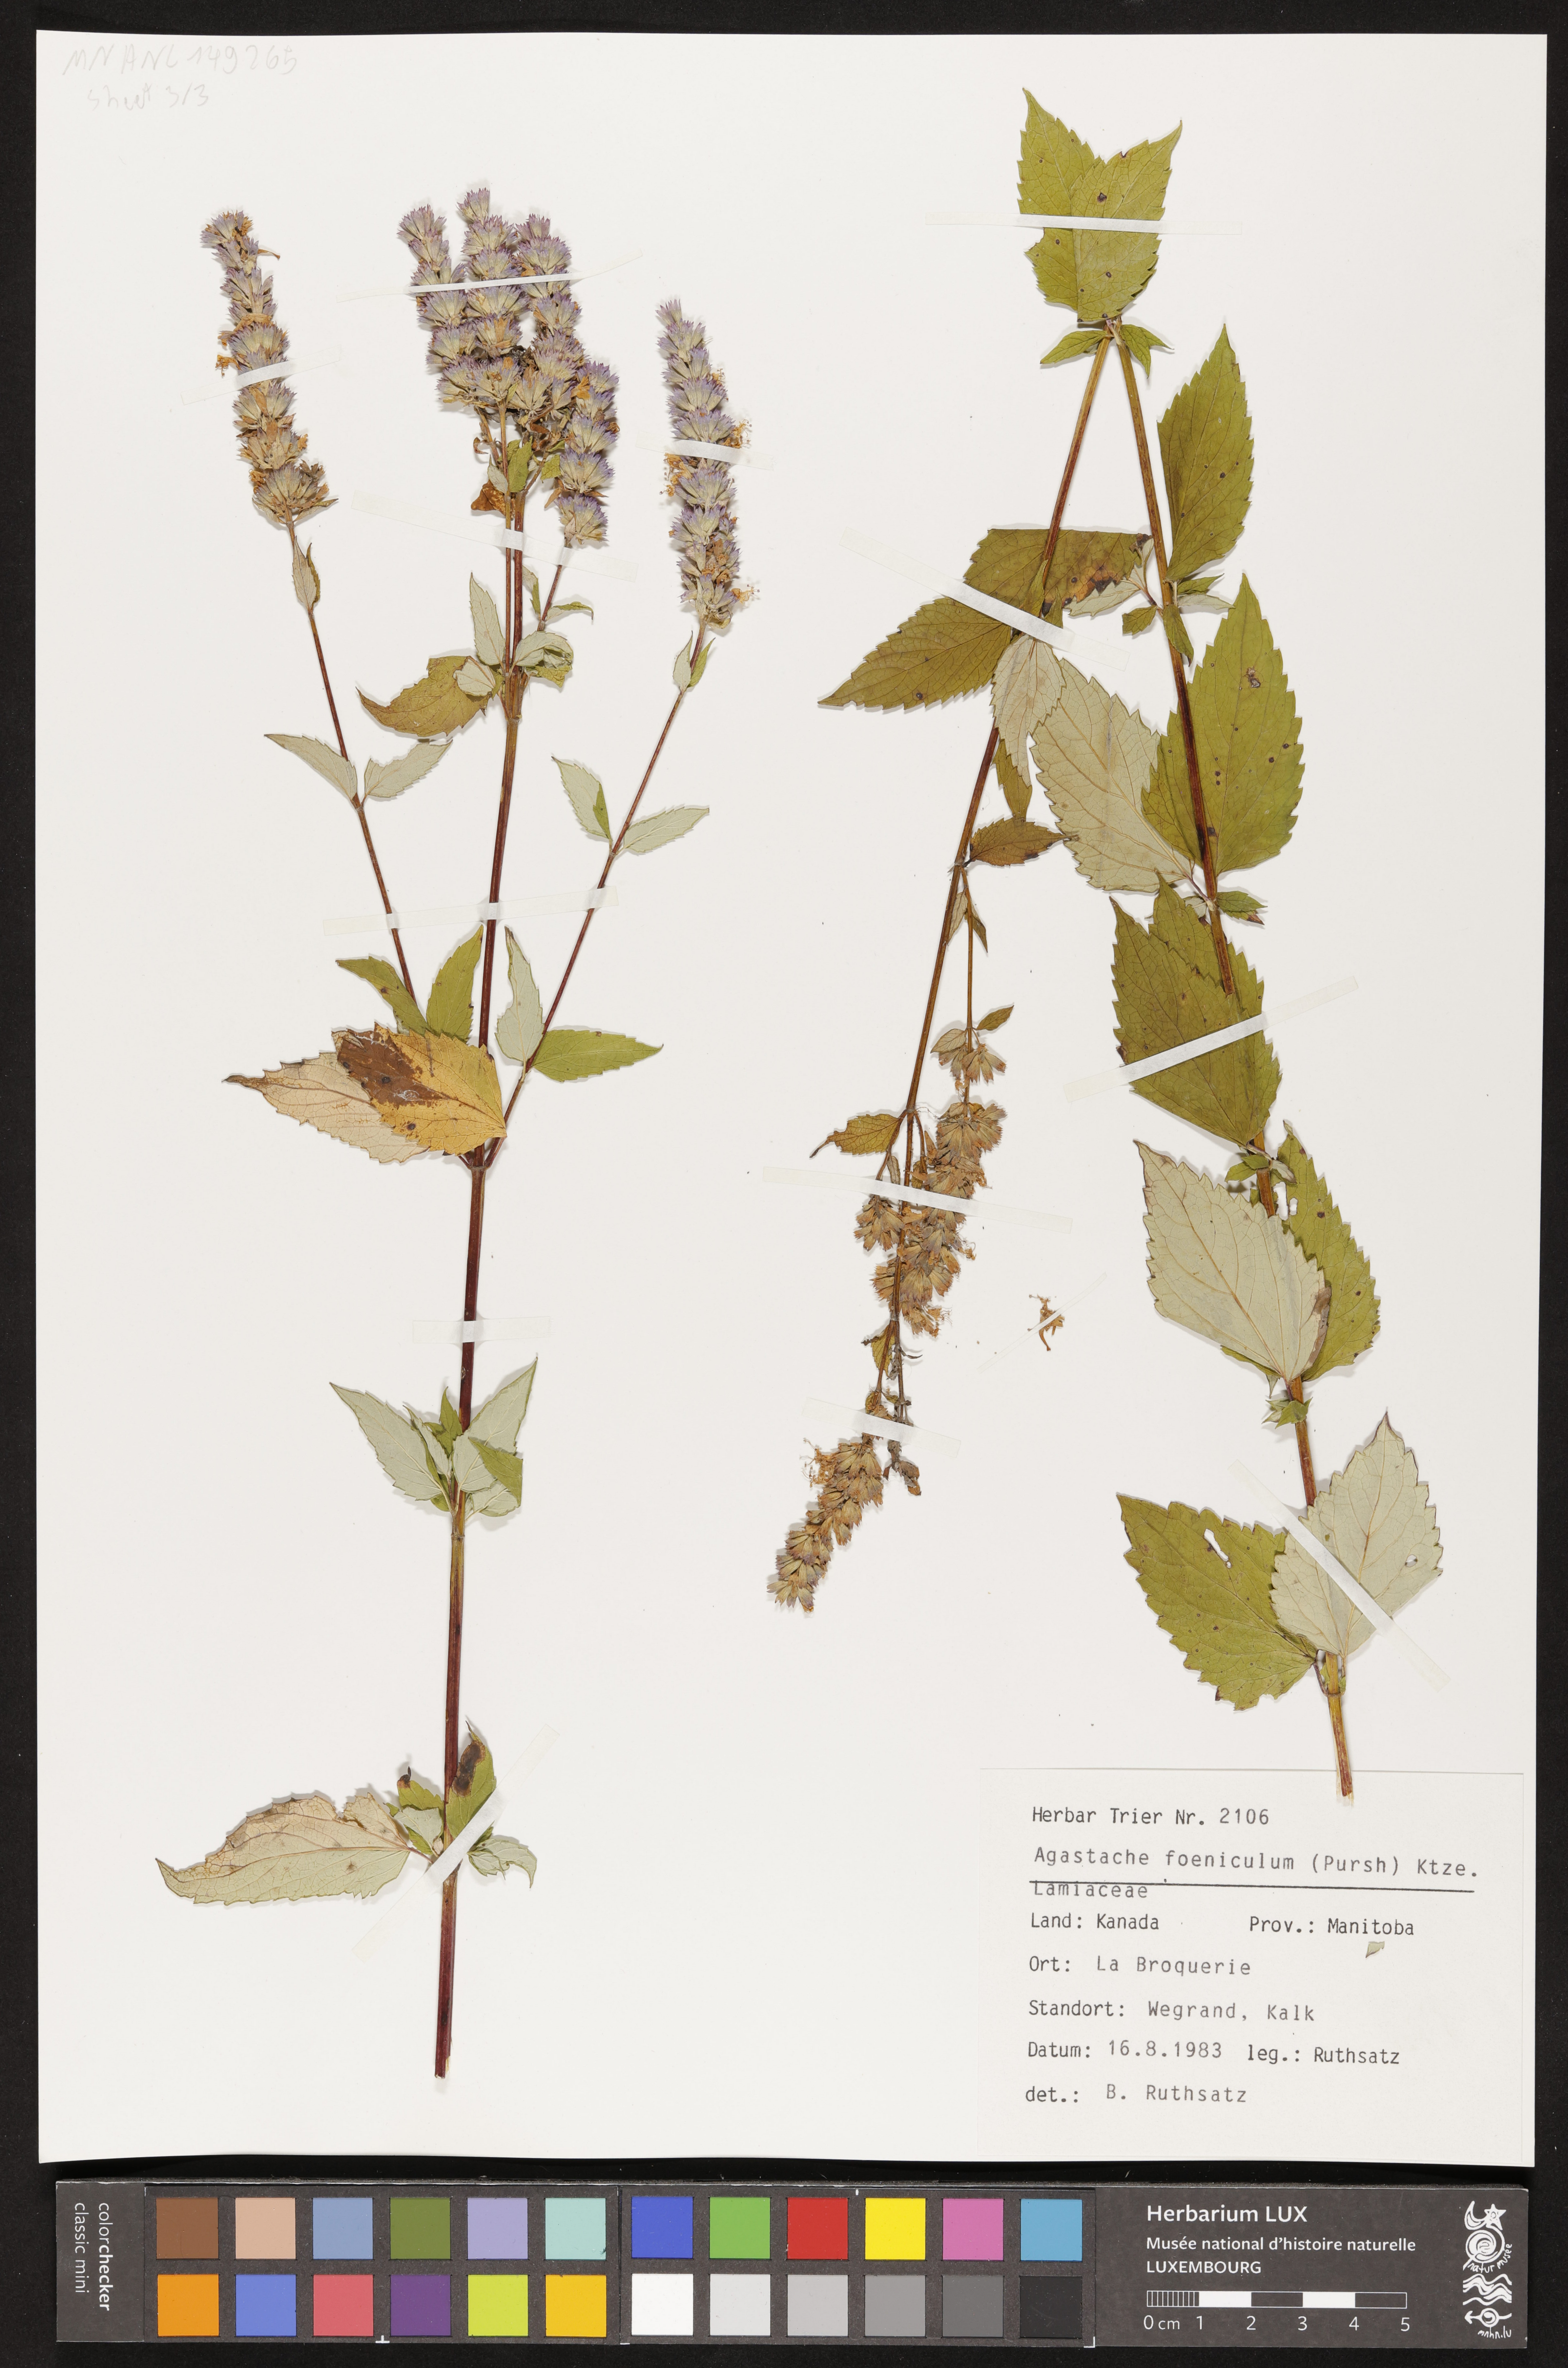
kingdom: Plantae
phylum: Tracheophyta
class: Magnoliopsida
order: Lamiales
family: Lamiaceae
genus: Agastache
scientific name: Agastache foeniculum
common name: Anise hyssop
